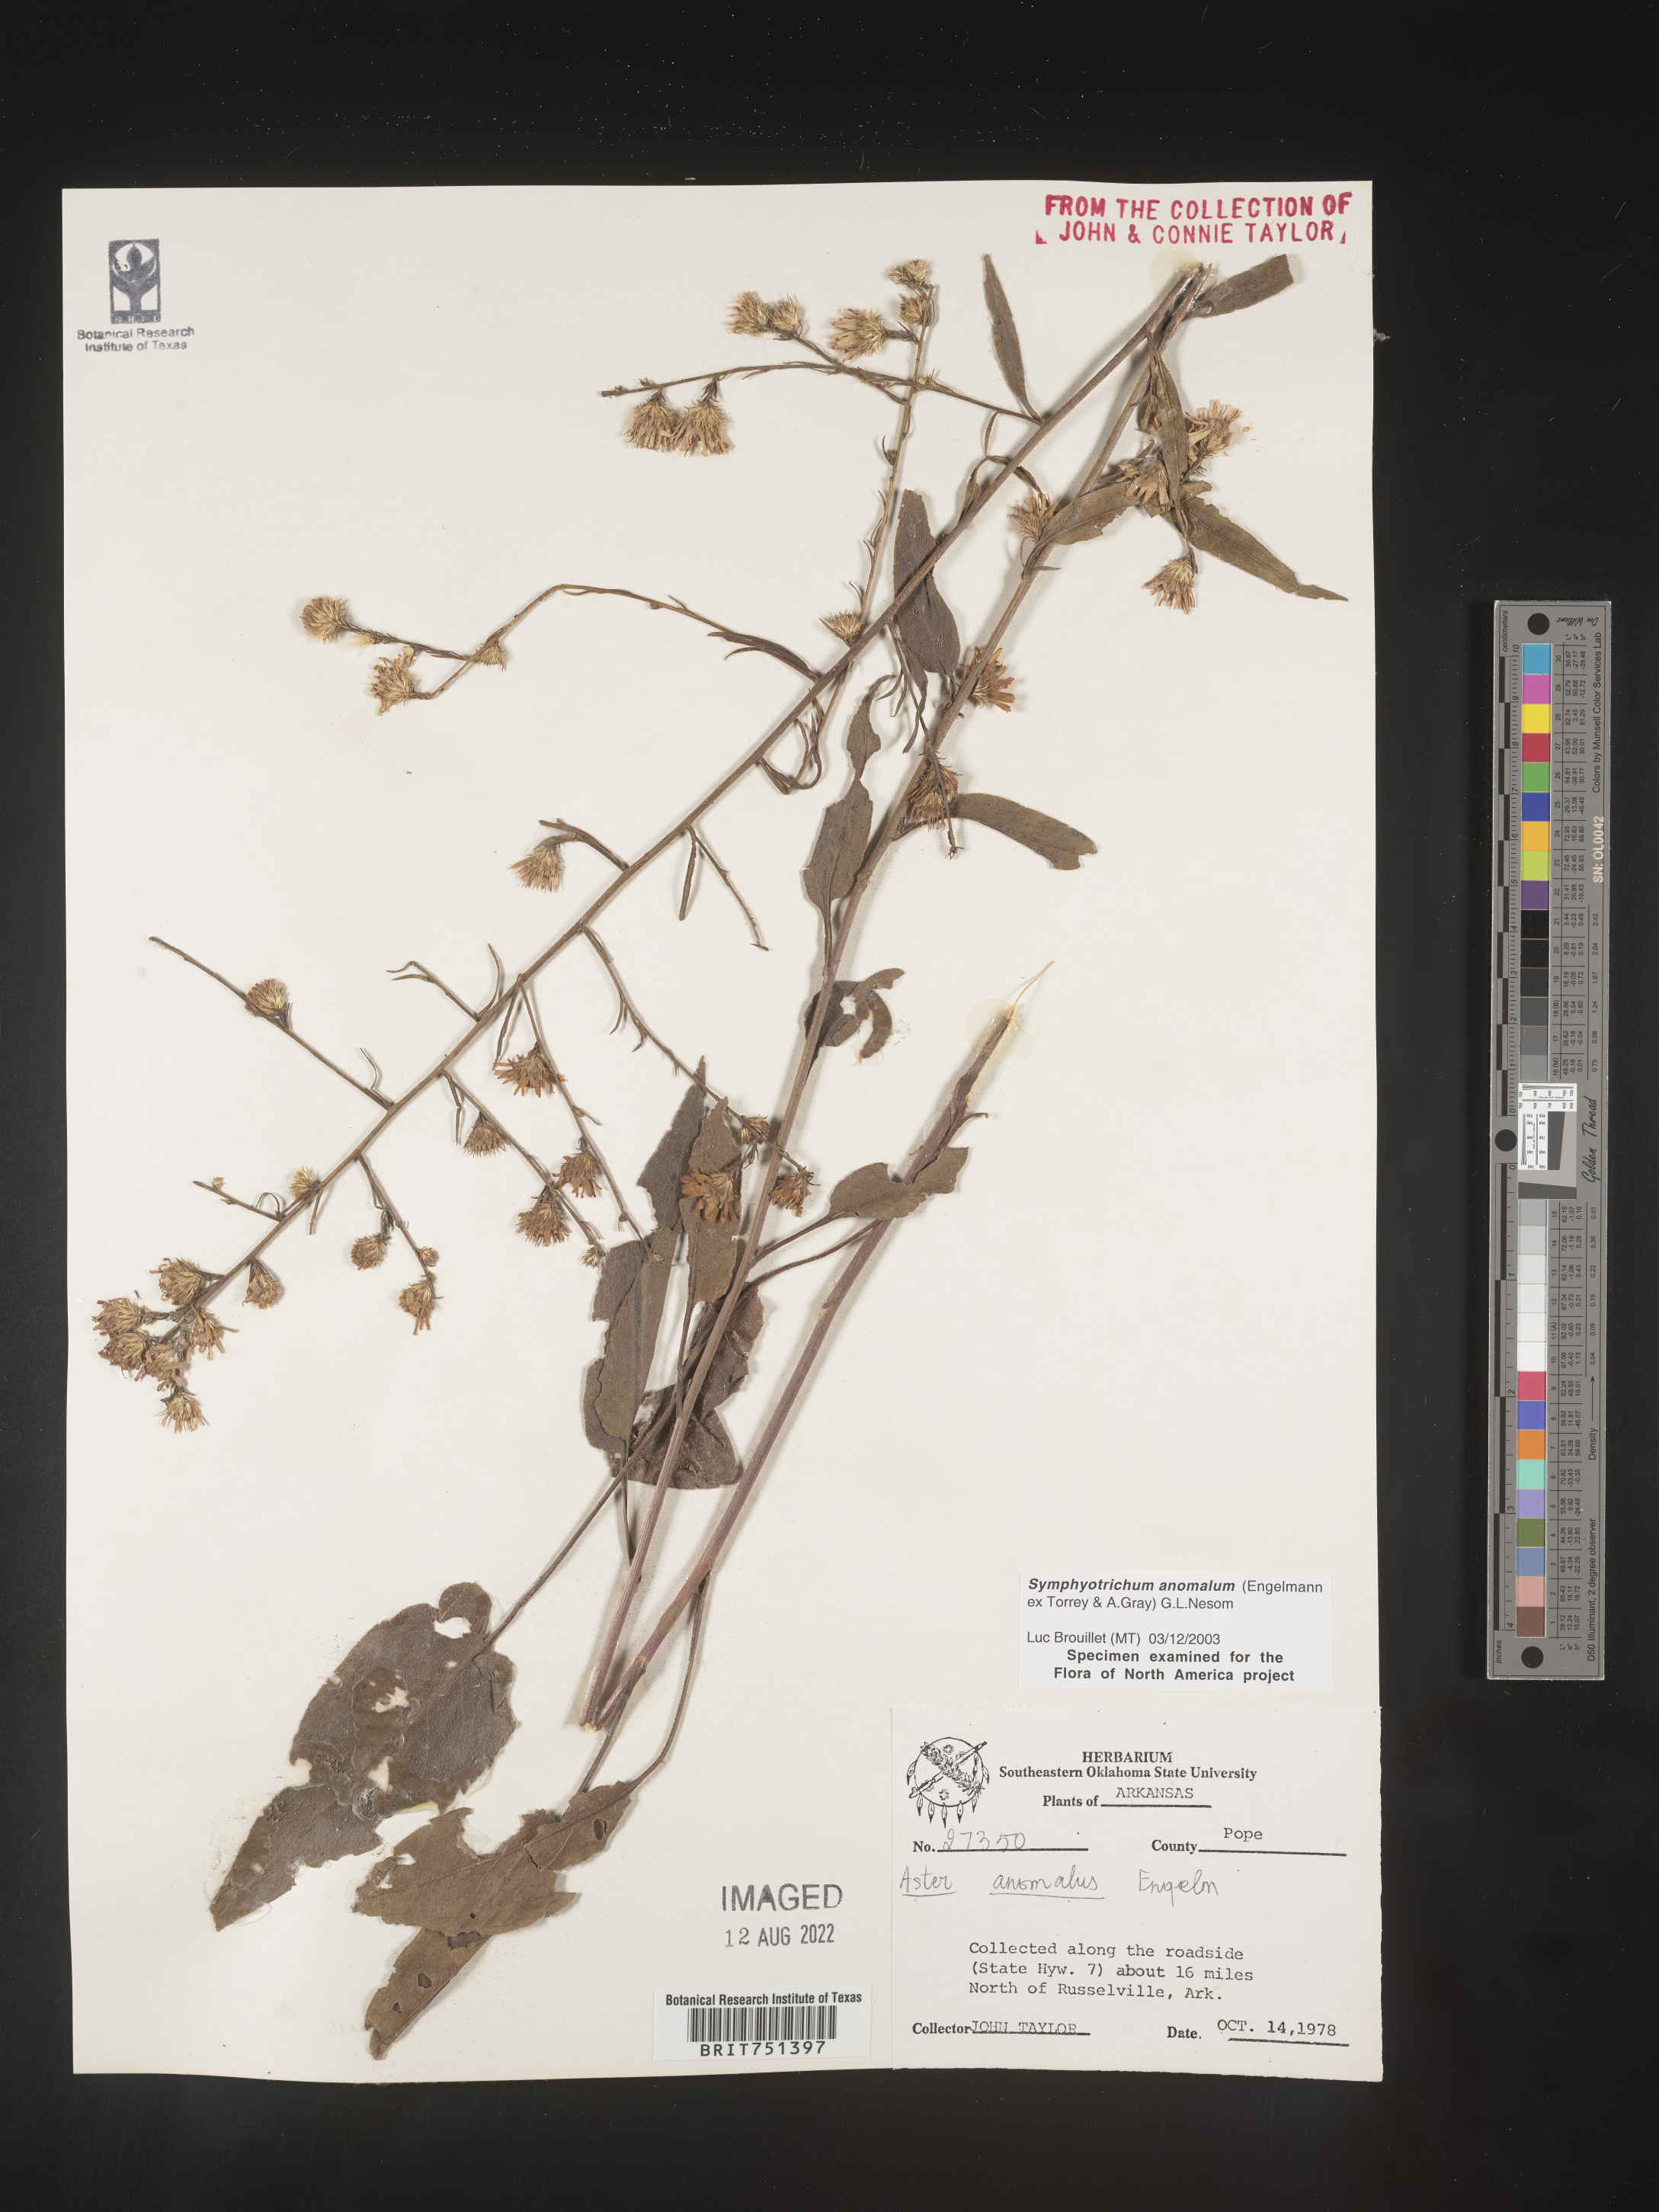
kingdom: Plantae
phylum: Tracheophyta
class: Magnoliopsida
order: Asterales
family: Asteraceae
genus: Symphyotrichum
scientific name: Symphyotrichum anomalum
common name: Many-ray aster
